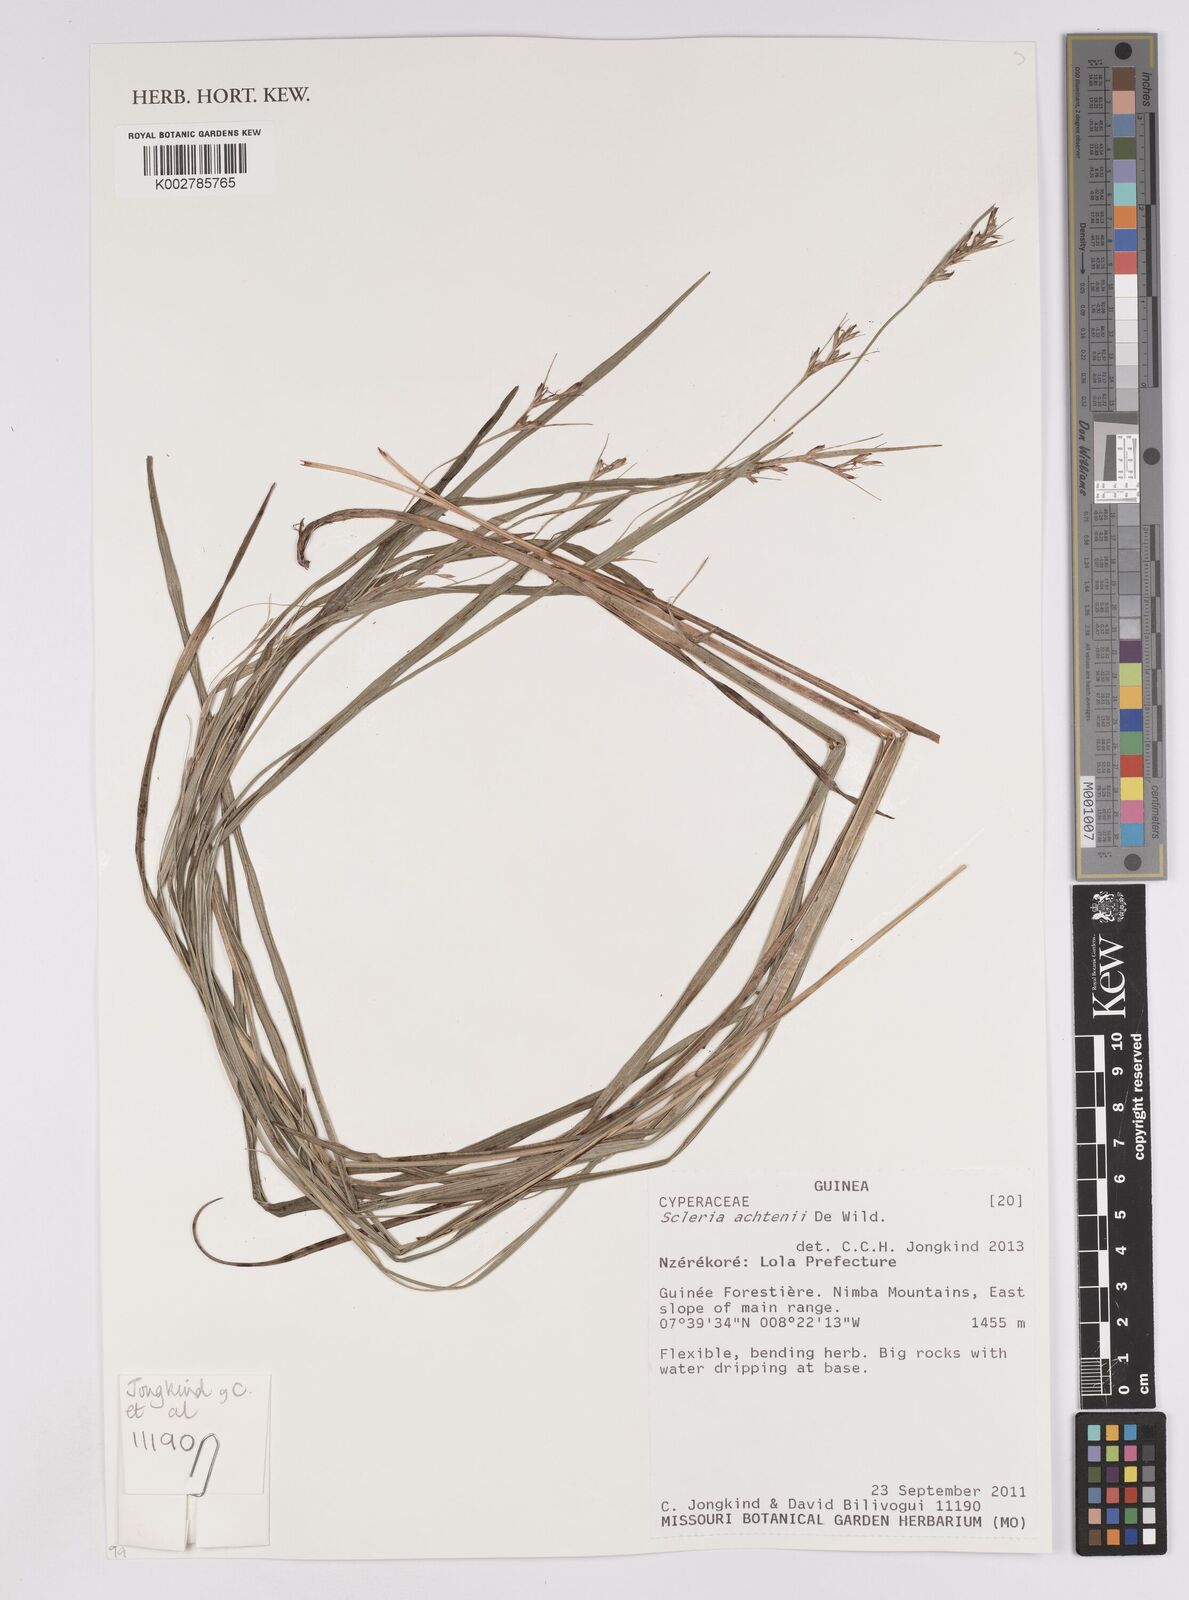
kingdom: Plantae
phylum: Tracheophyta
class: Liliopsida
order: Poales
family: Cyperaceae
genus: Scleria
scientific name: Scleria achtenii
